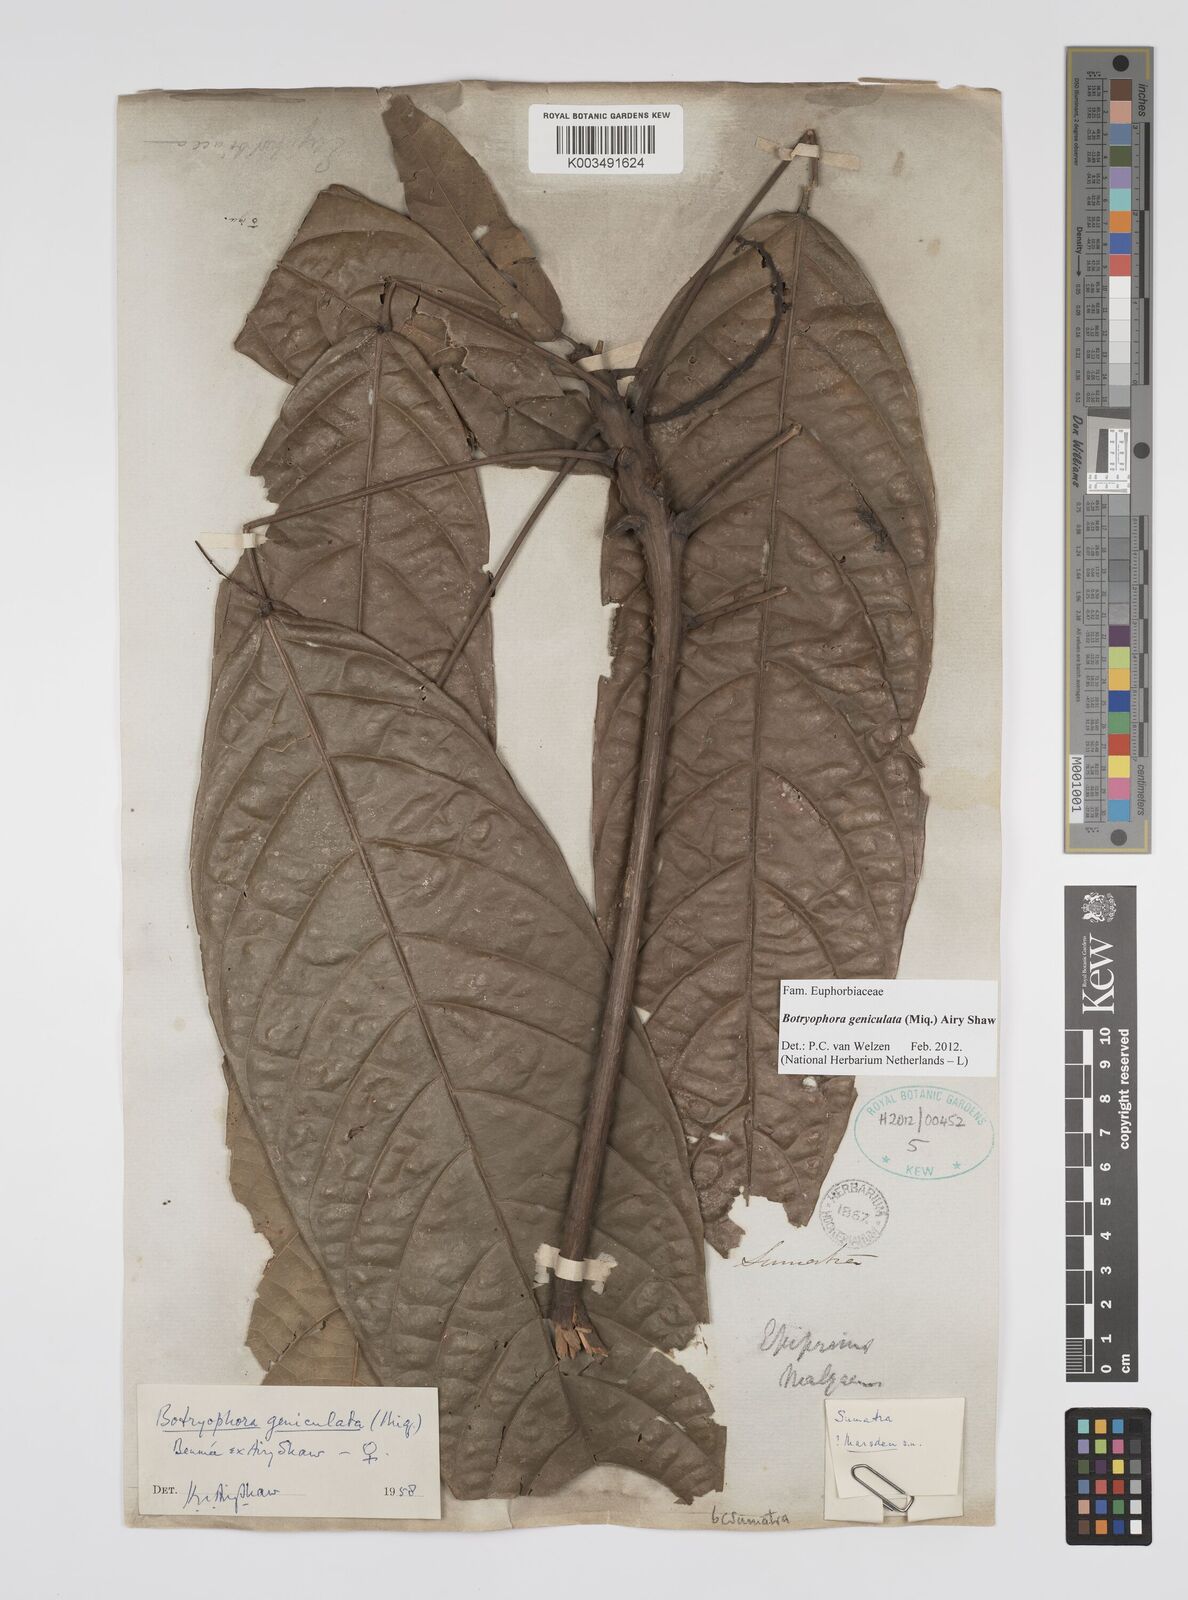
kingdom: Plantae
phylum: Tracheophyta
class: Magnoliopsida
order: Malpighiales
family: Euphorbiaceae
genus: Botryophora
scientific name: Botryophora geniculata
